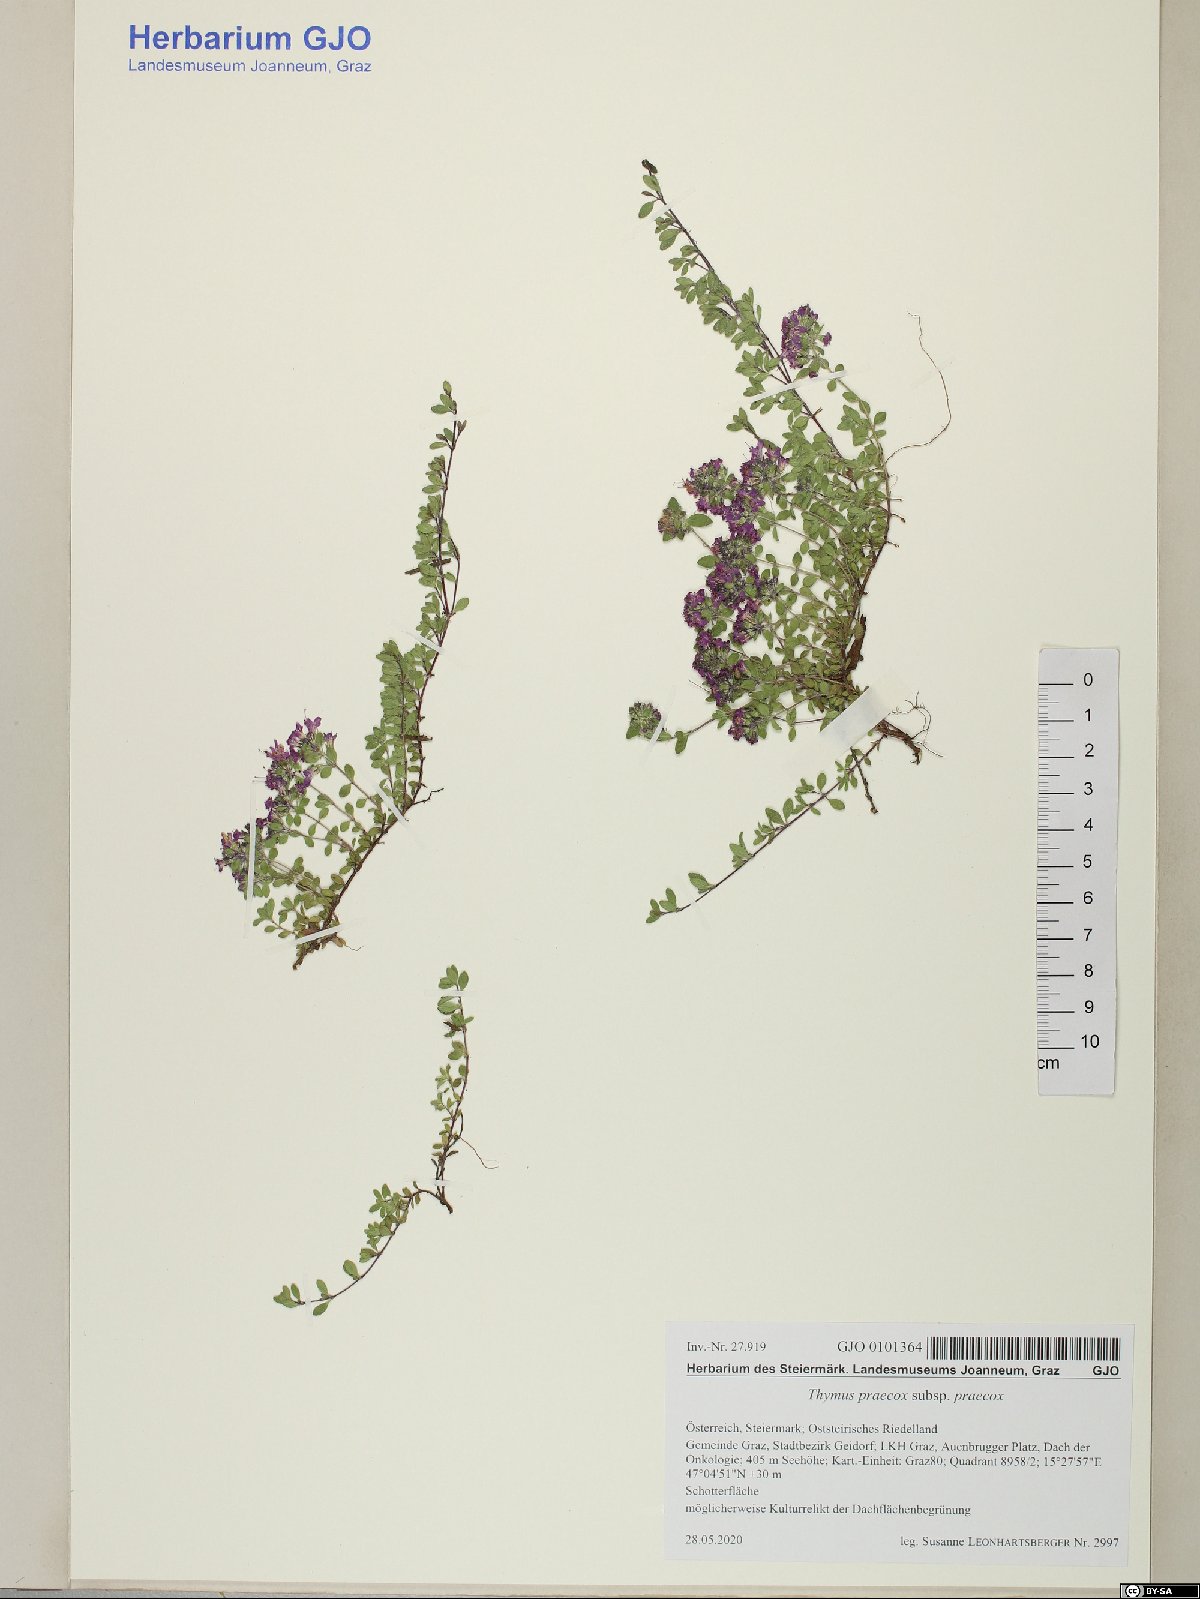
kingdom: Plantae
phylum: Tracheophyta
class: Magnoliopsida
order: Lamiales
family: Lamiaceae
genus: Thymus
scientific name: Thymus praecox
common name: Wild thyme
